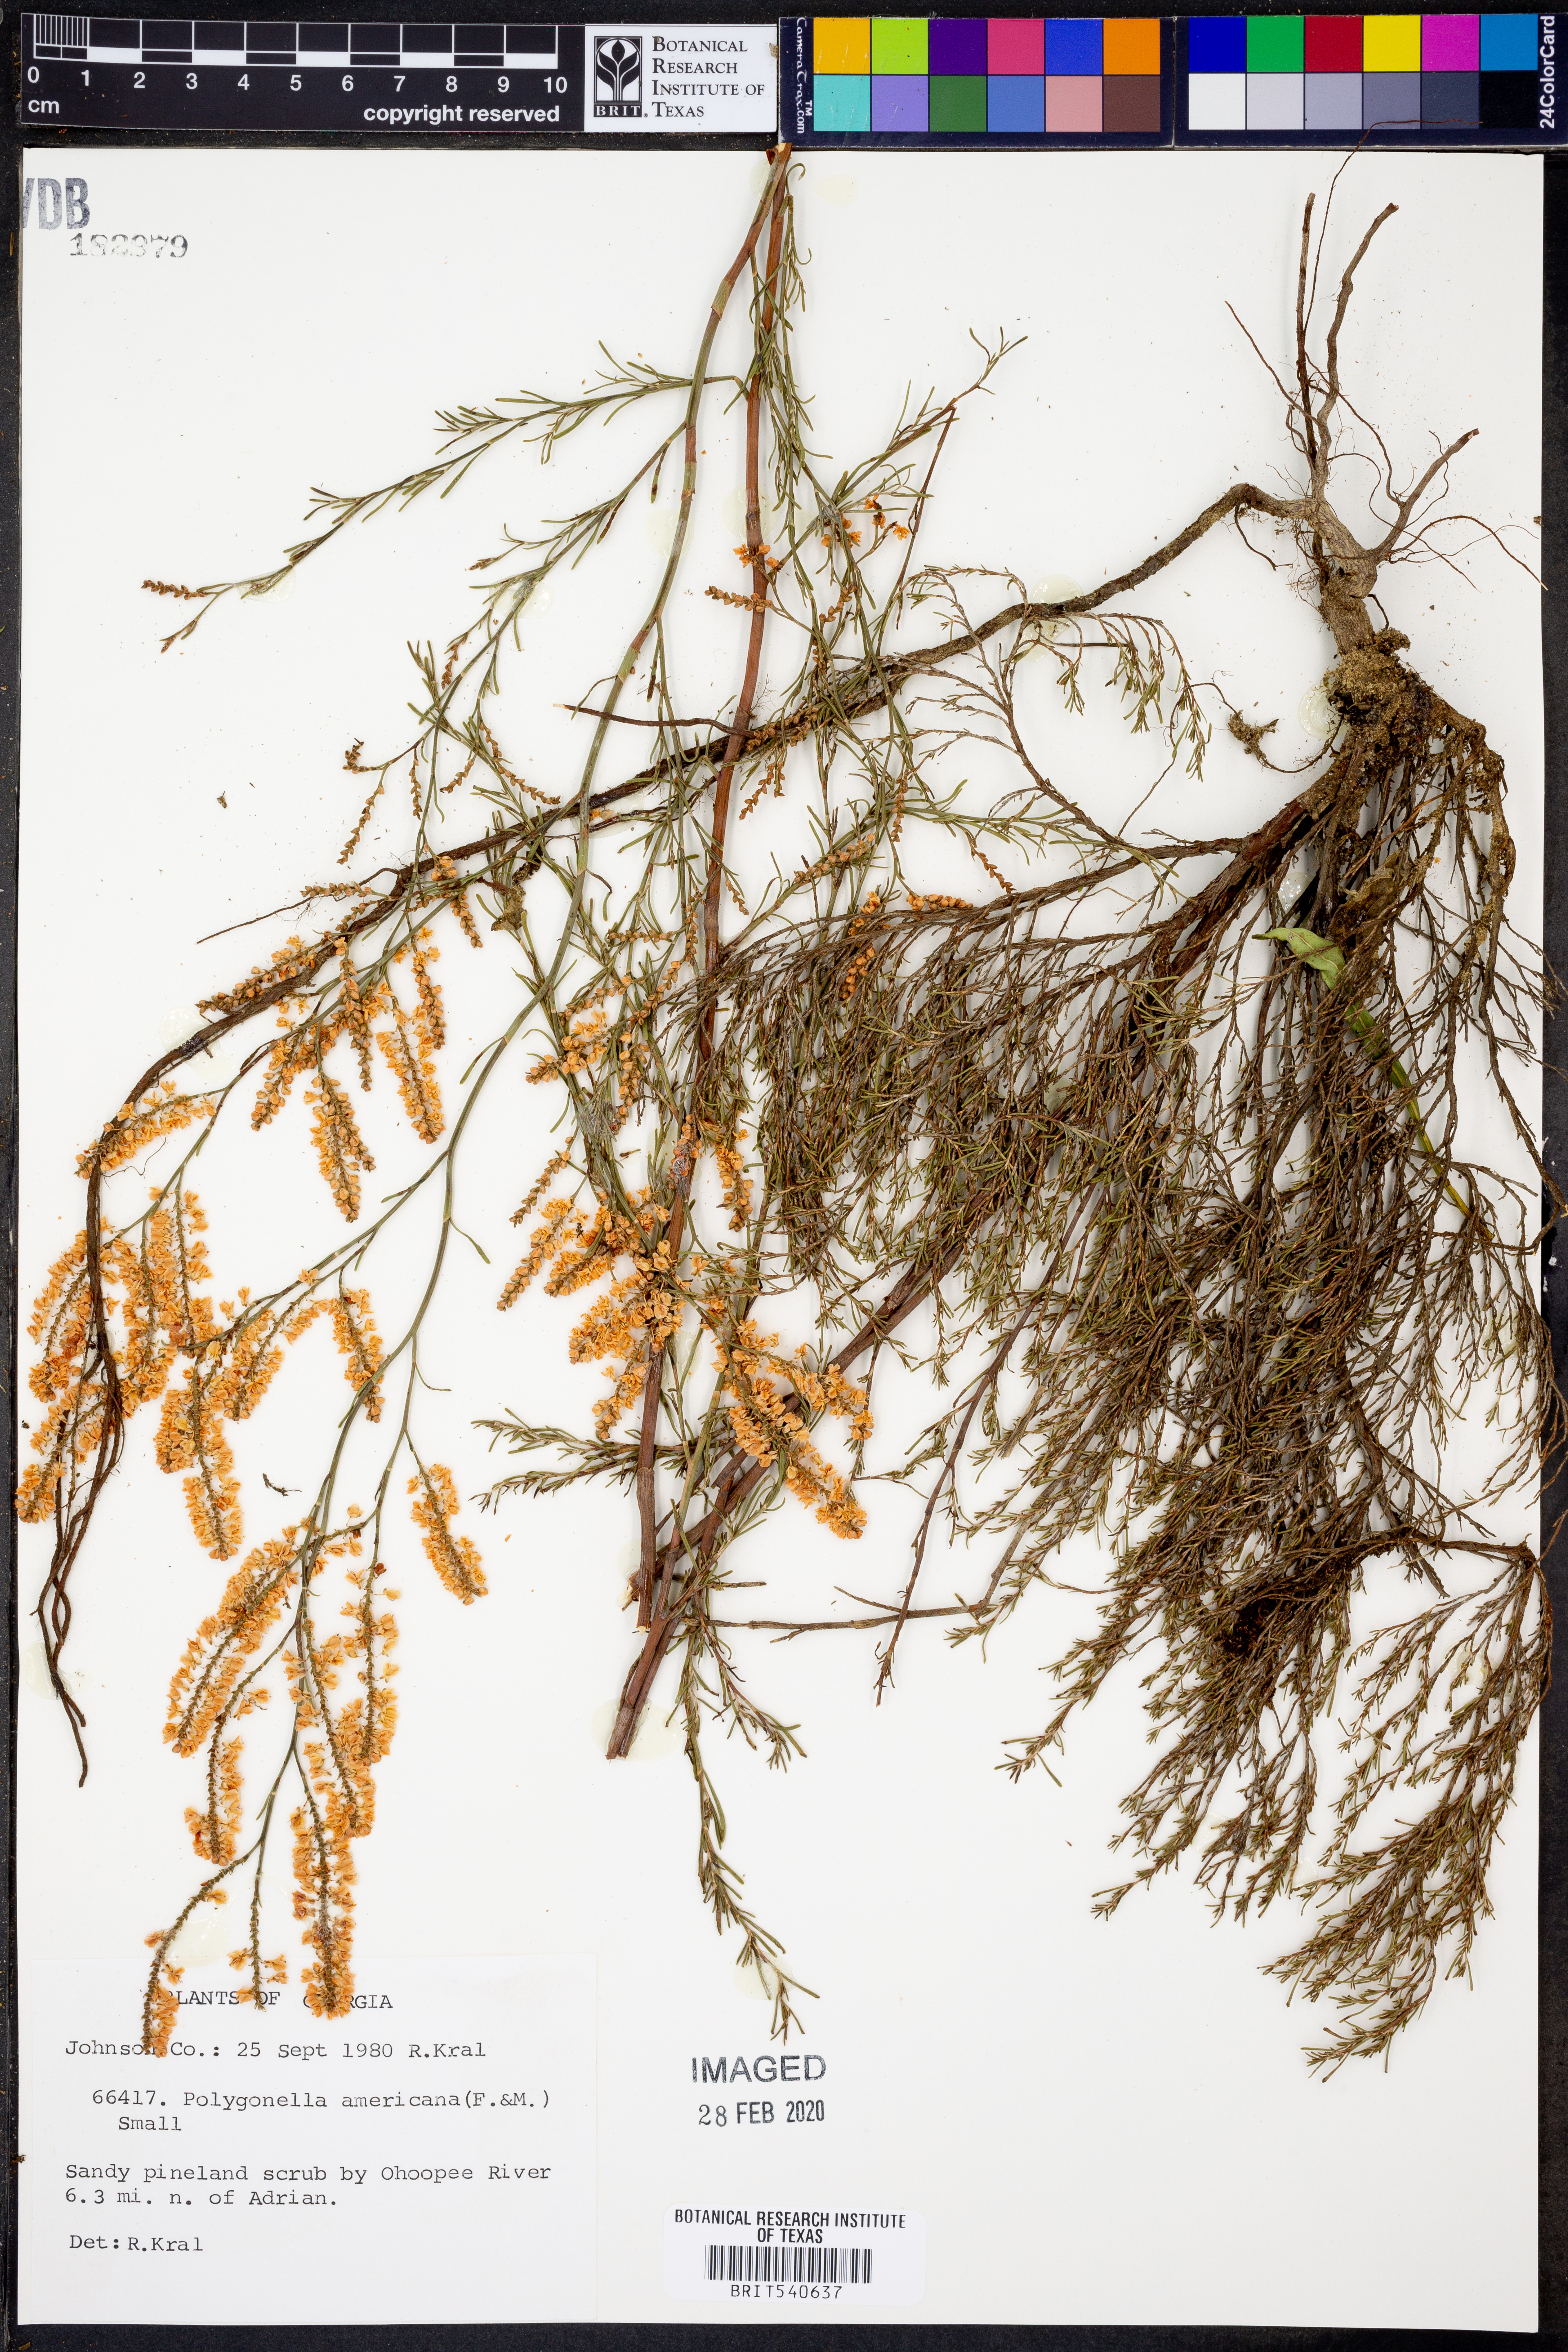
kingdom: Plantae
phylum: Tracheophyta
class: Magnoliopsida
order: Caryophyllales
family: Polygonaceae
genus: Polygonella
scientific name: Polygonella americana
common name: Southern jointweed
